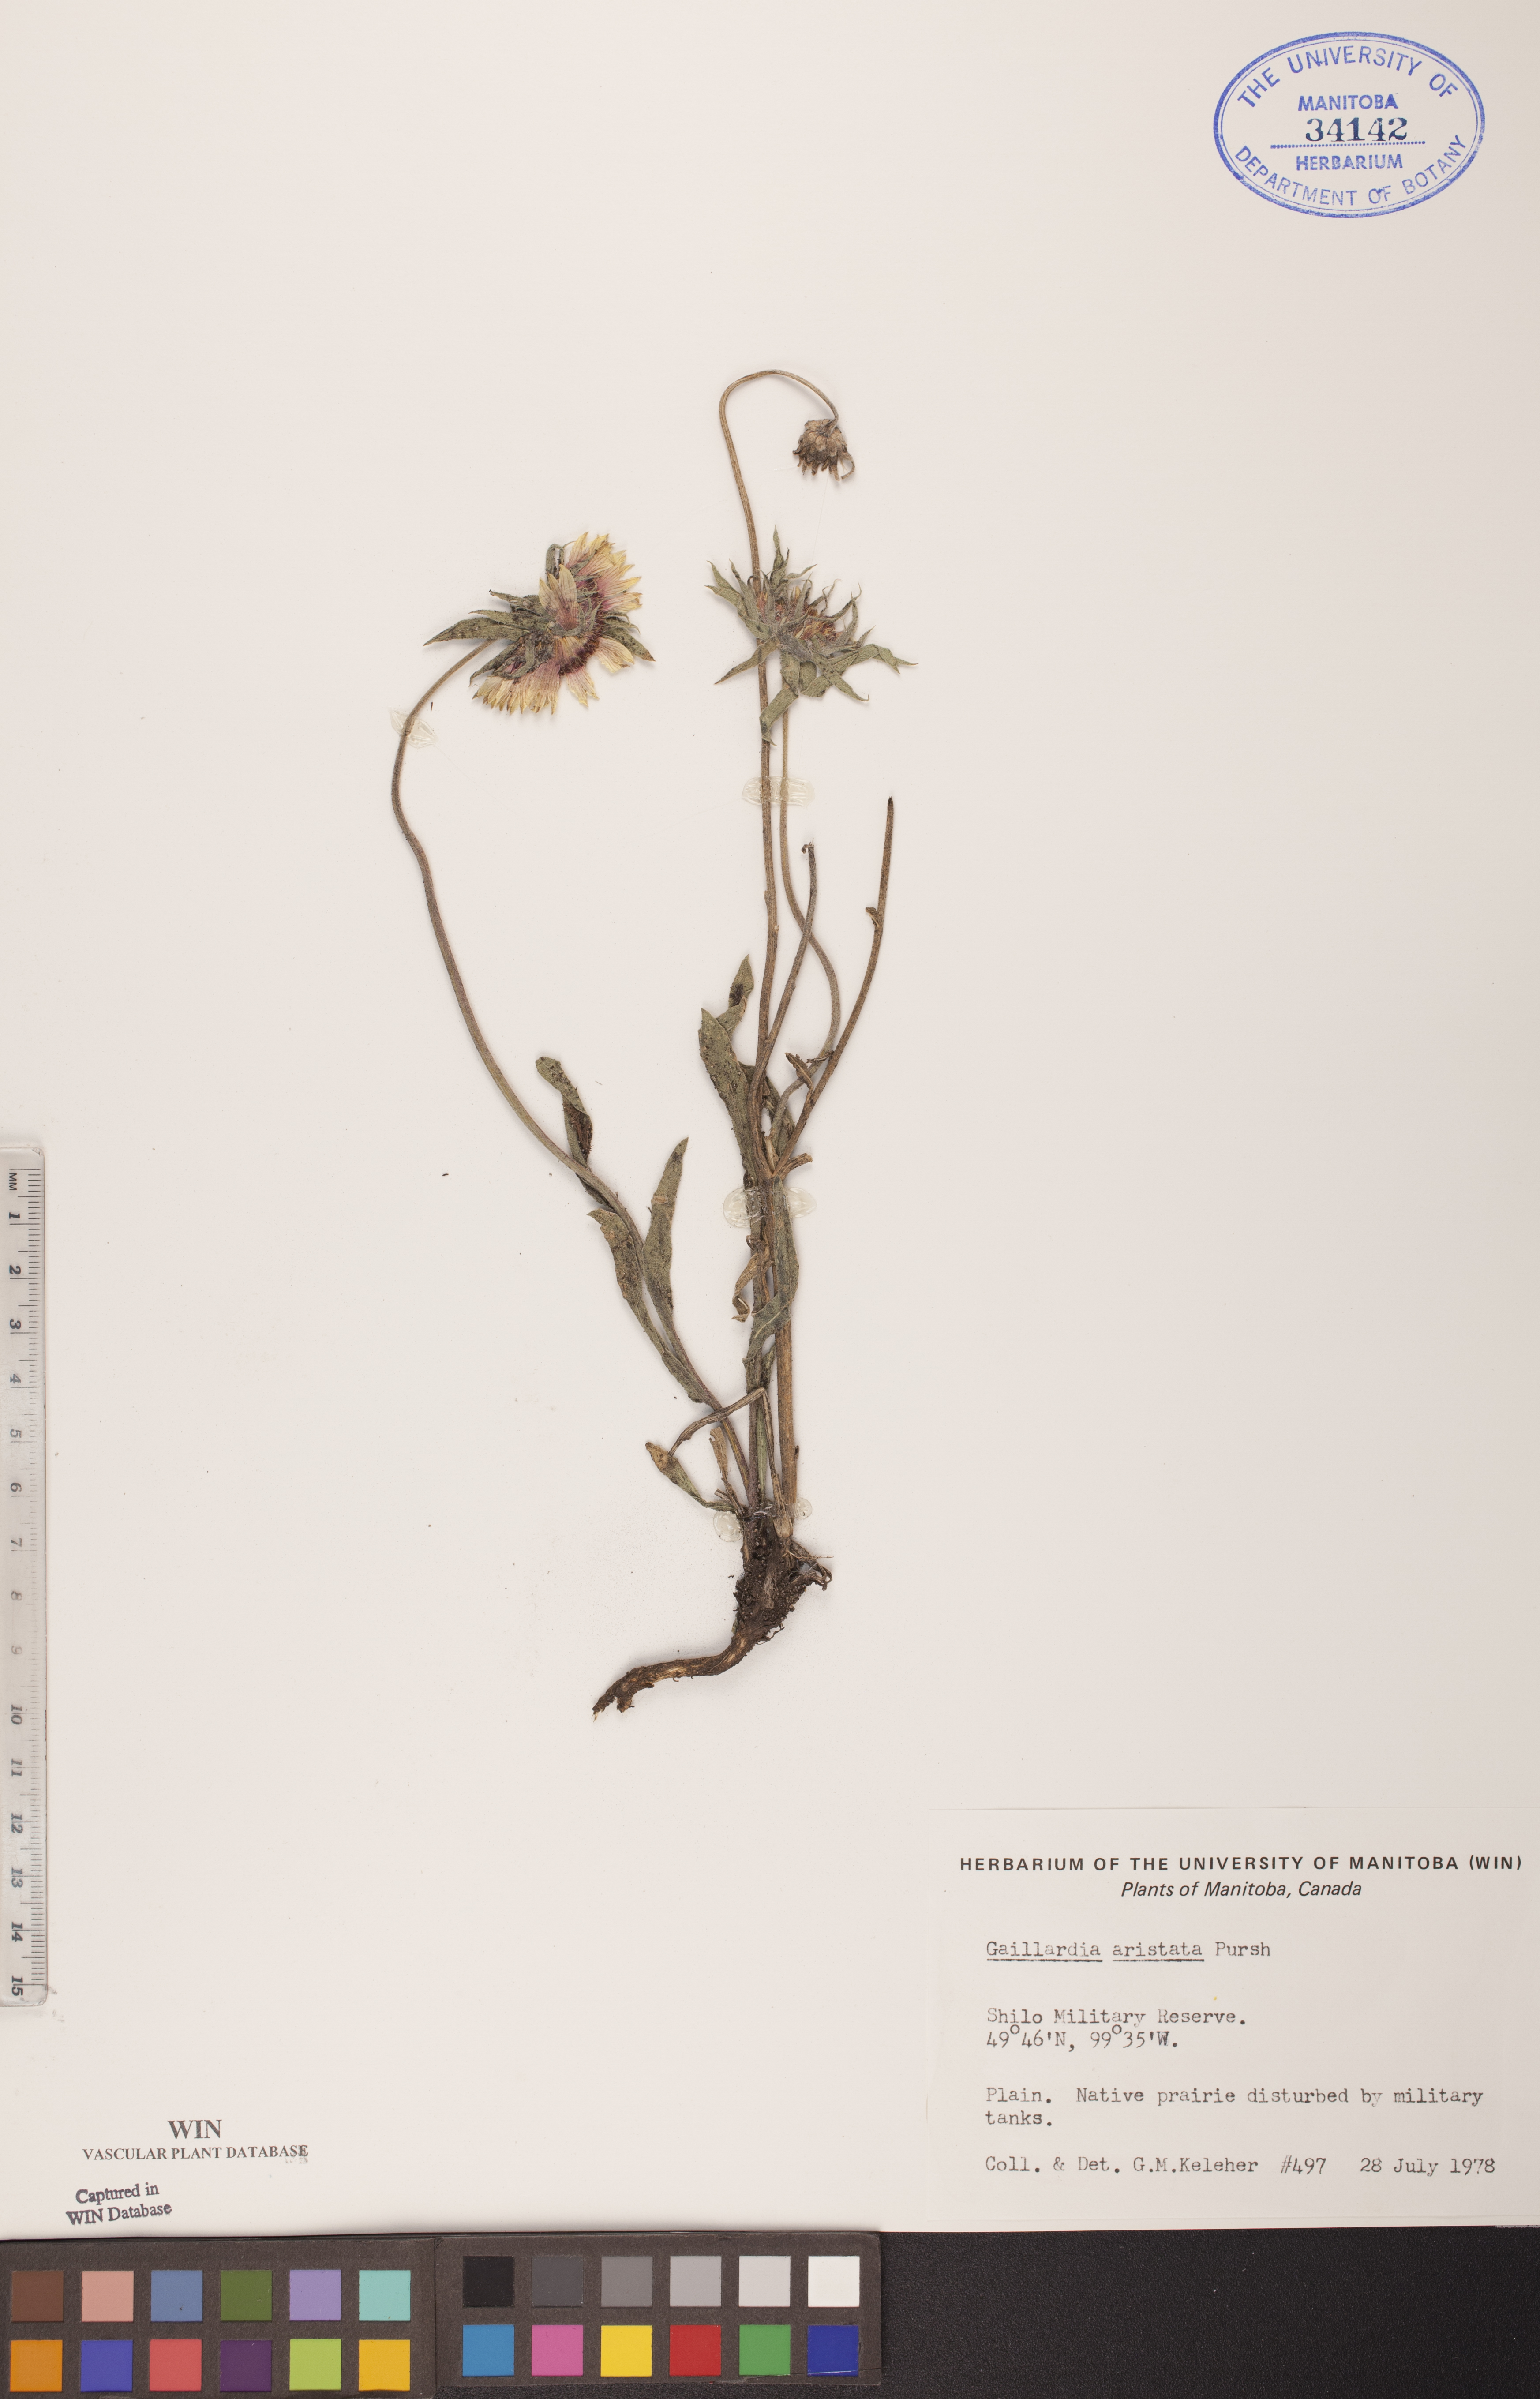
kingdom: Plantae
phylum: Tracheophyta
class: Magnoliopsida
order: Asterales
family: Asteraceae
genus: Gaillardia
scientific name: Gaillardia aristata
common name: Blanket-flower
